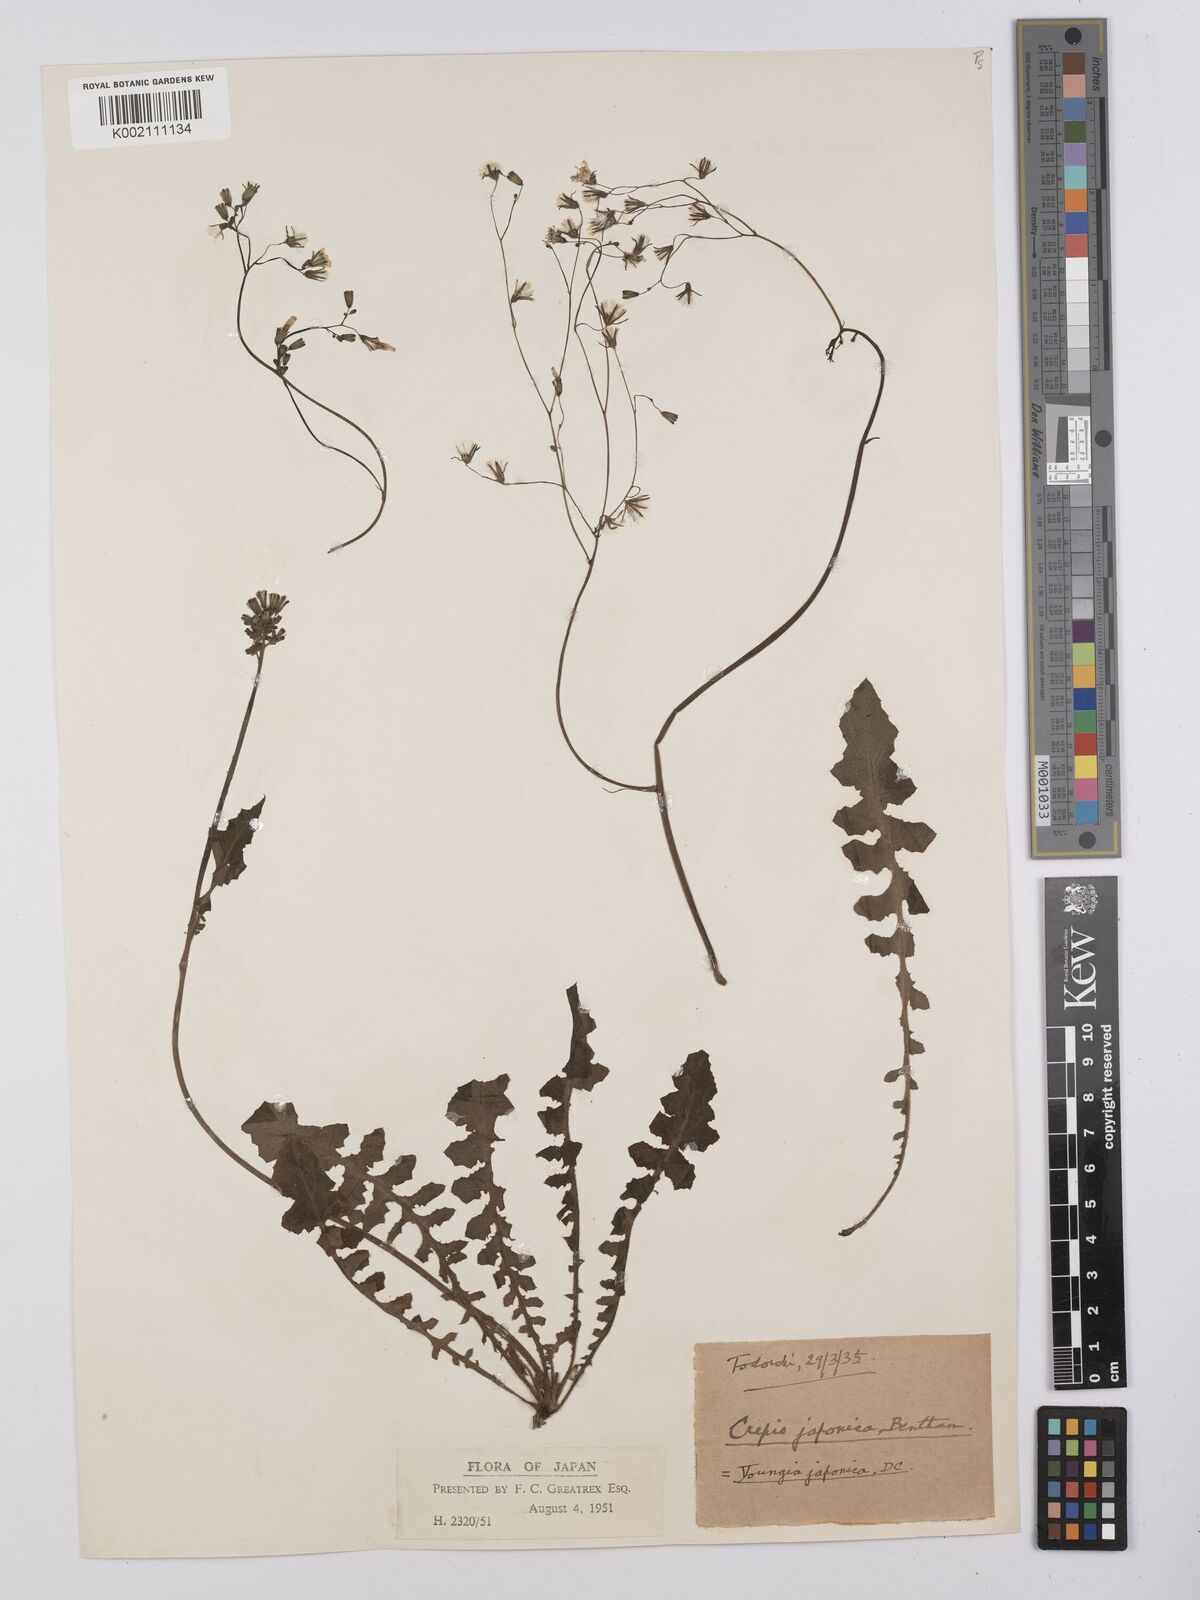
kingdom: Plantae
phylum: Tracheophyta
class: Magnoliopsida
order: Asterales
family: Asteraceae
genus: Youngia
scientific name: Youngia japonica
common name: Oriental false hawksbeard
